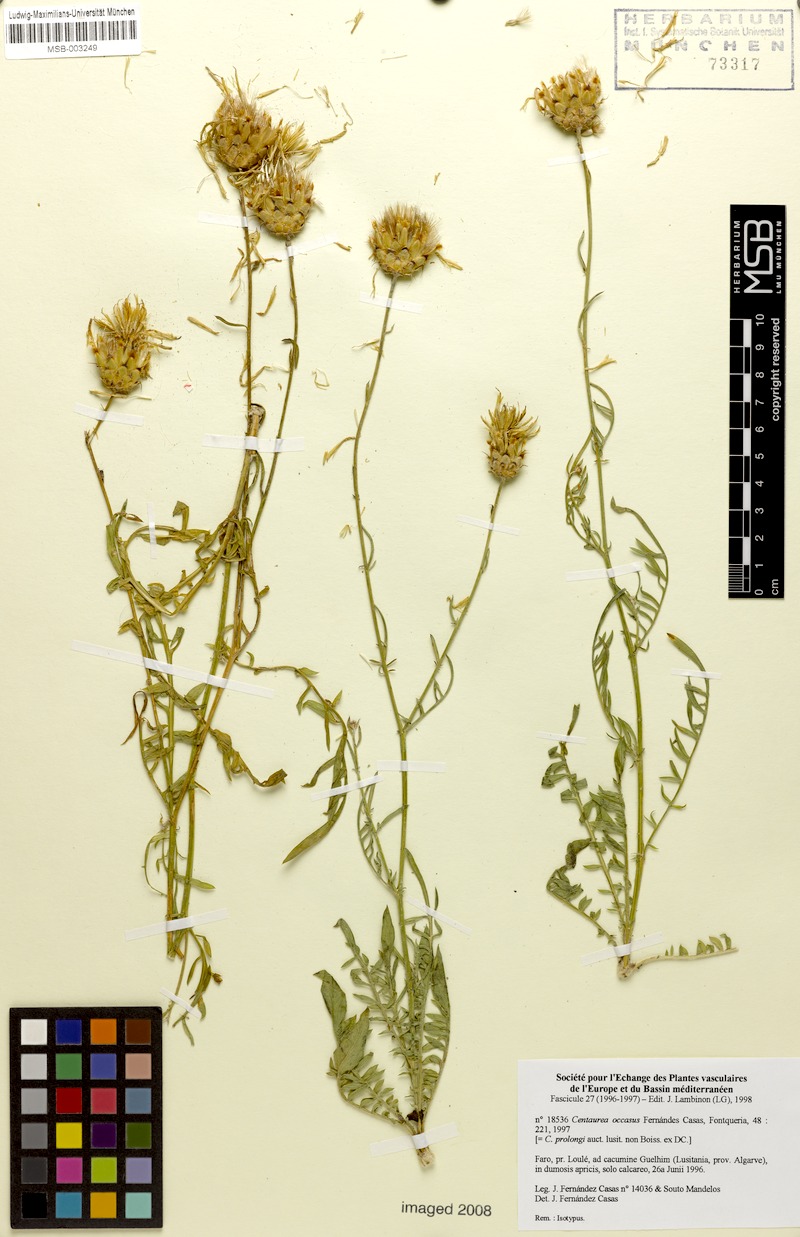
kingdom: Plantae
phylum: Tracheophyta
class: Magnoliopsida
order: Asterales
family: Asteraceae
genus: Centaurea
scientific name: Centaurea occasus
